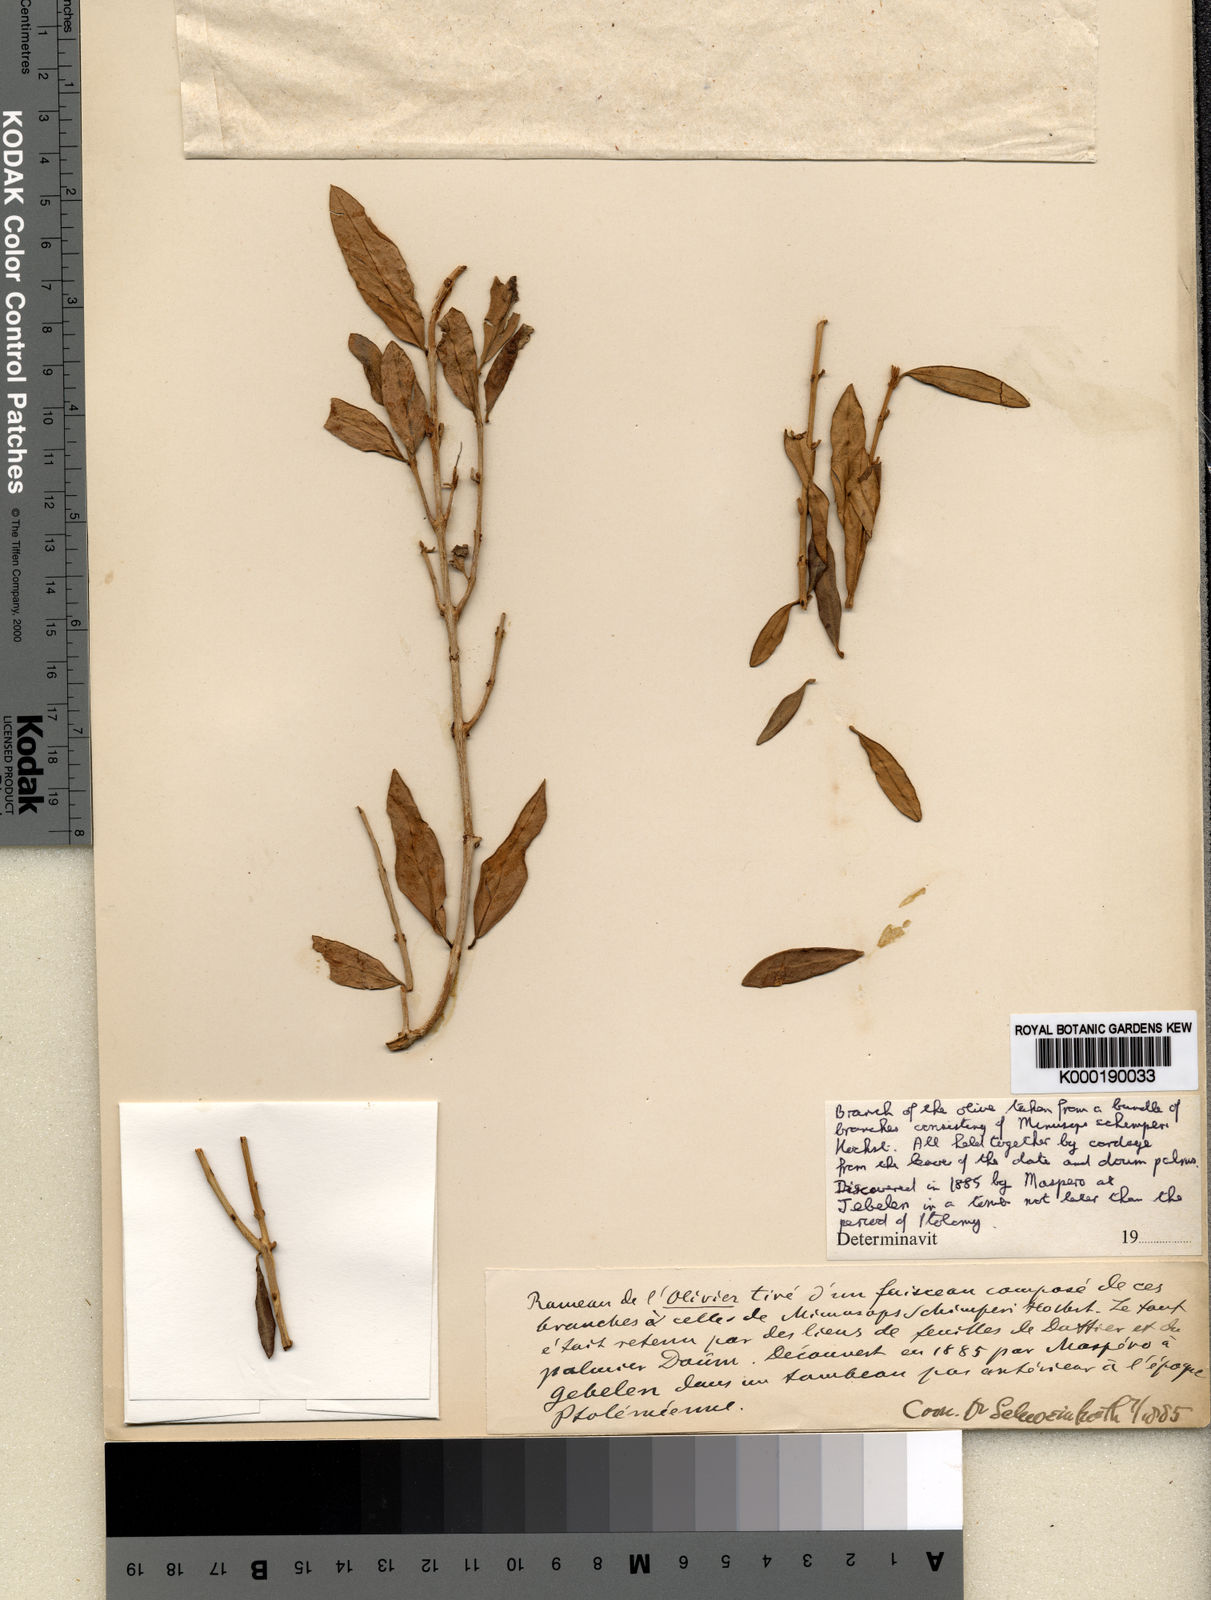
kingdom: Plantae
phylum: Tracheophyta
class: Magnoliopsida
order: Lamiales
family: Oleaceae
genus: Olea
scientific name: Olea europaea
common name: Olive
